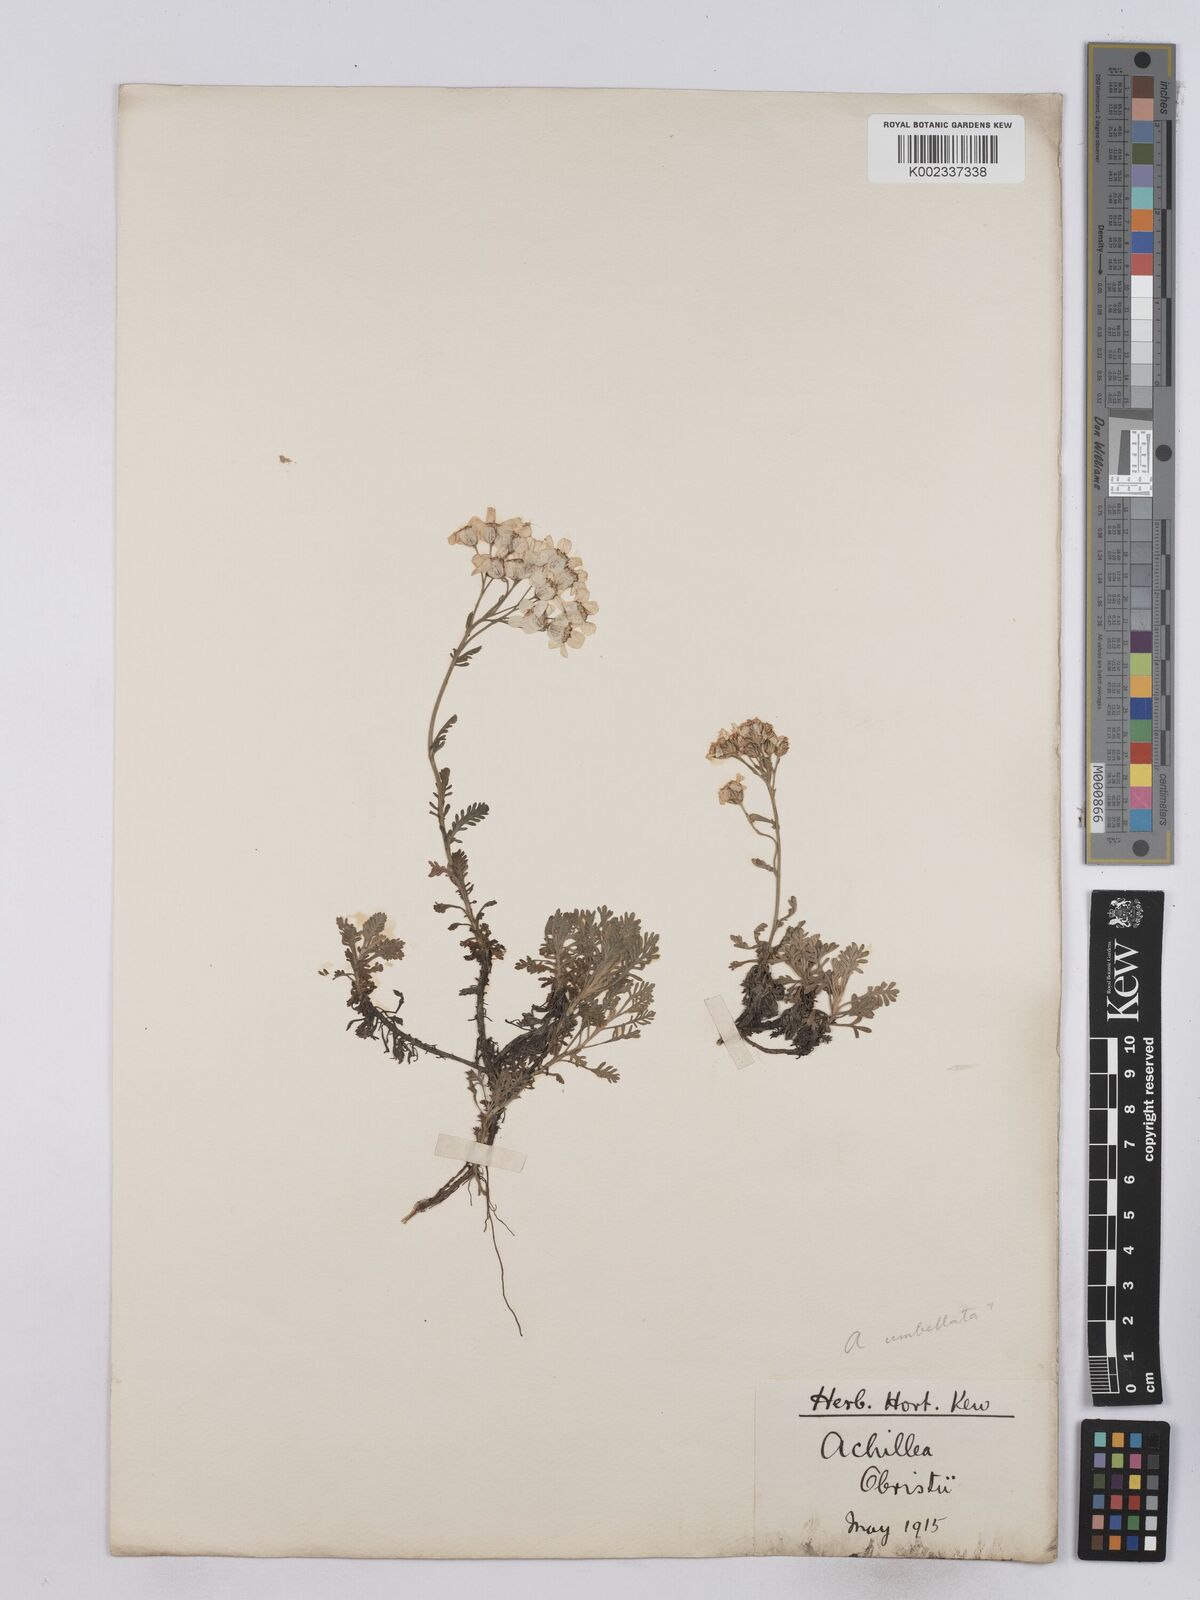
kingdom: Plantae
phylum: Tracheophyta
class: Magnoliopsida
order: Asterales
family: Asteraceae
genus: Achillea
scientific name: Achillea obristii
